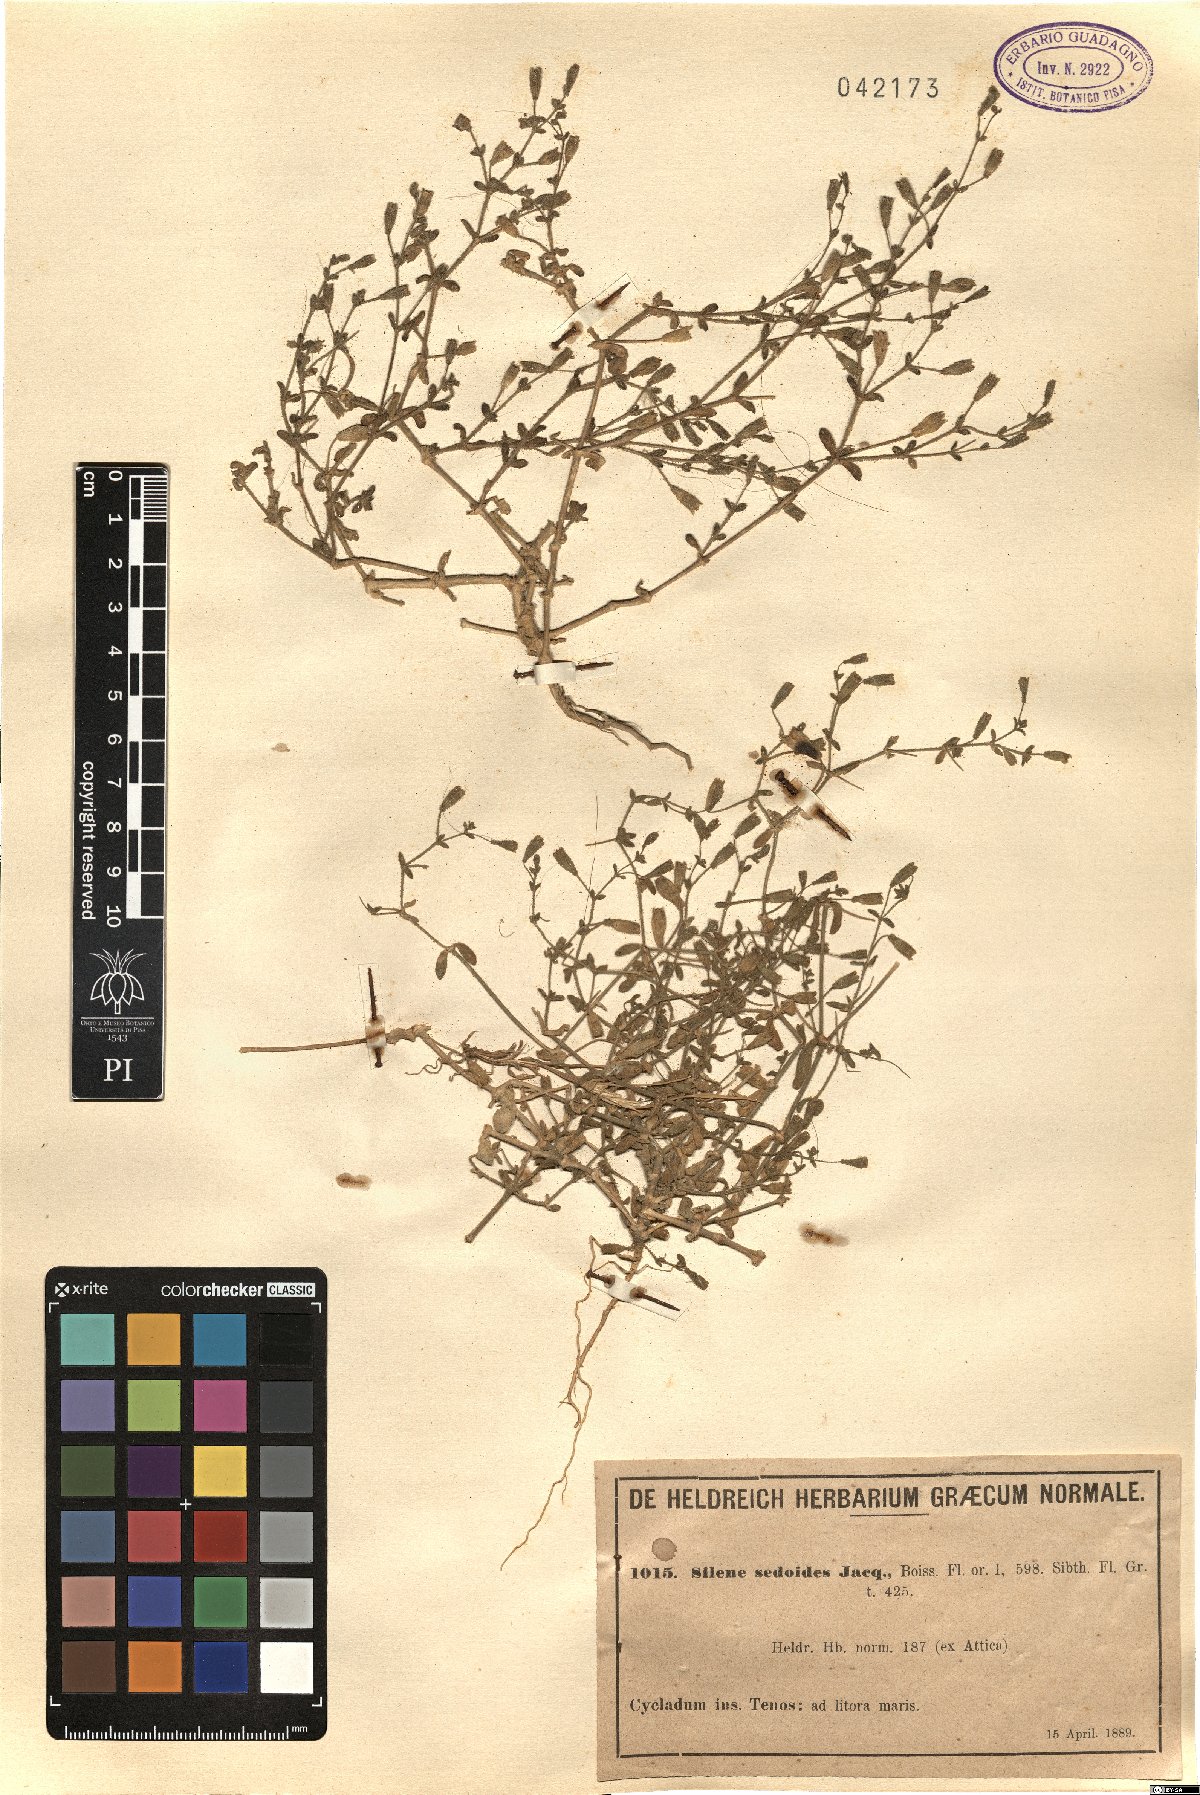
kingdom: Plantae
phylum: Tracheophyta
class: Magnoliopsida
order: Caryophyllales
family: Caryophyllaceae
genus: Silene
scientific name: Silene sedoides
